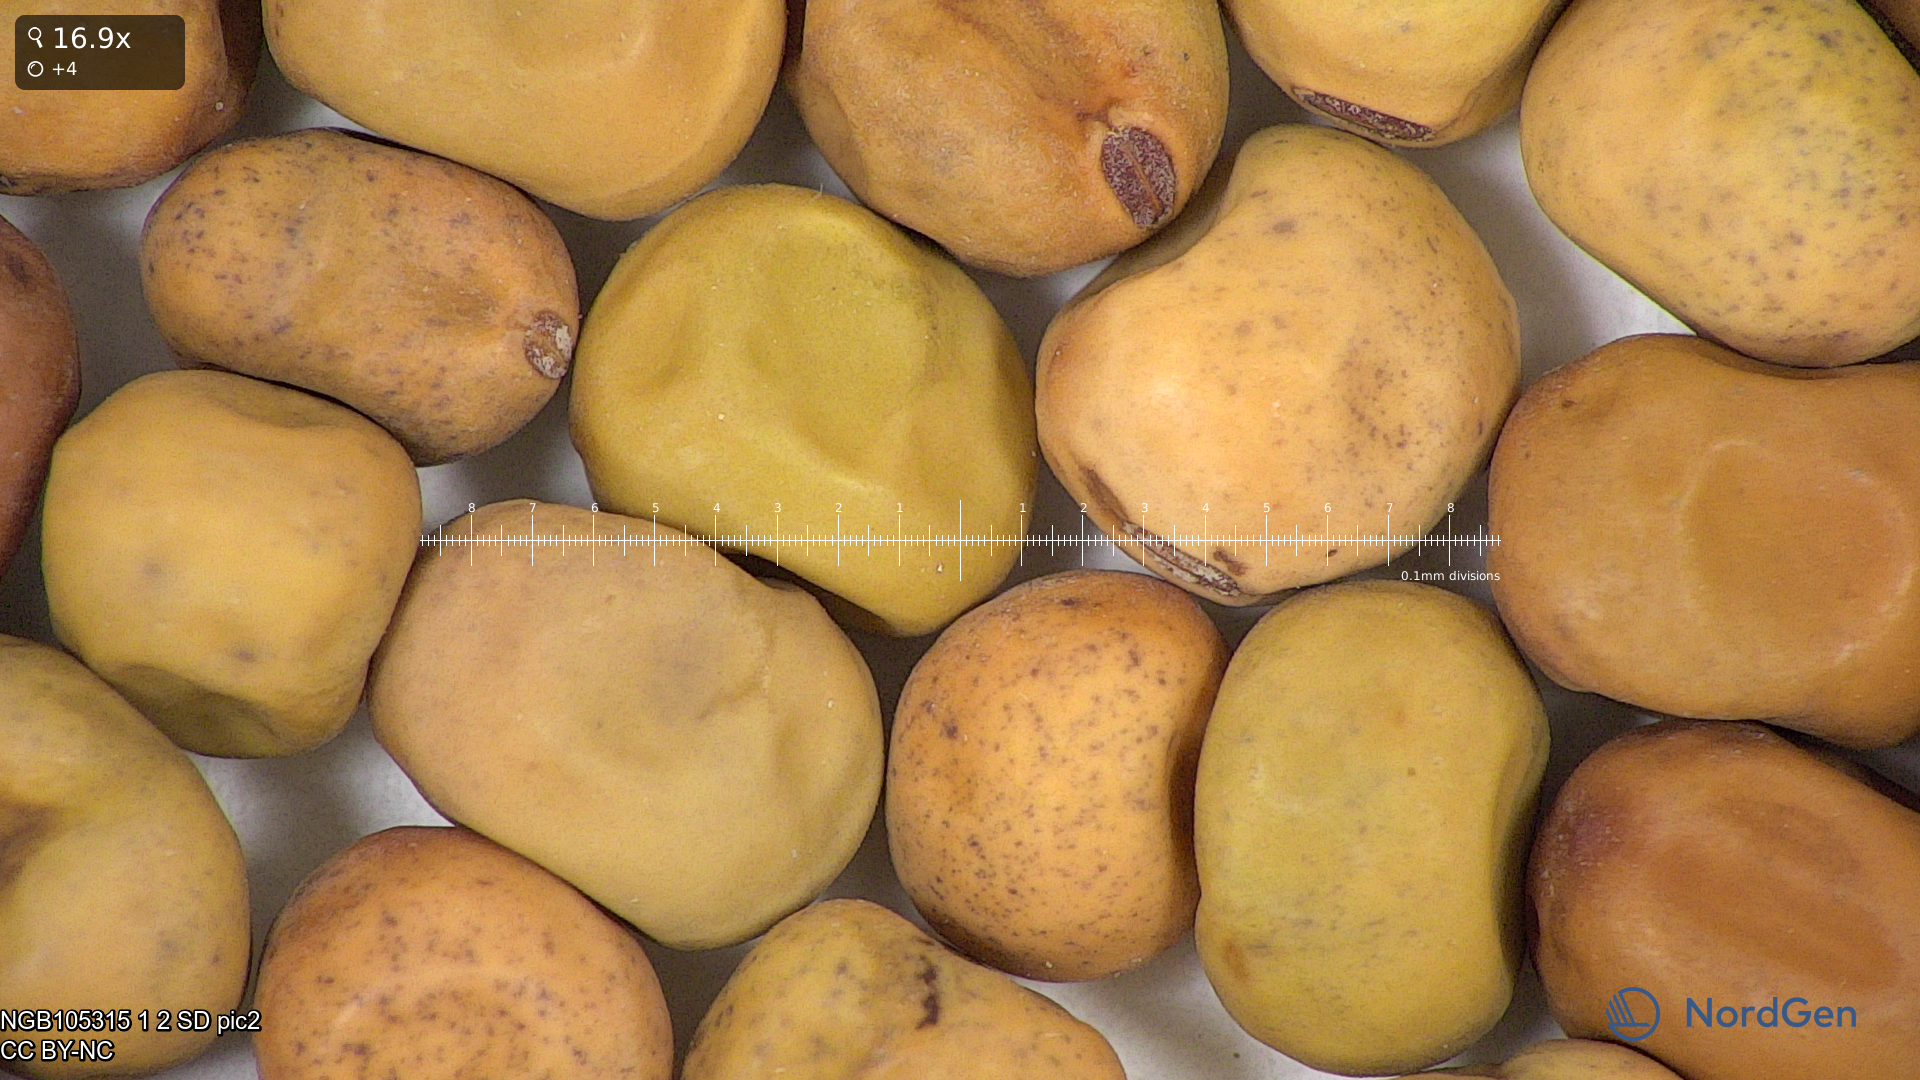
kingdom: Plantae
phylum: Tracheophyta
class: Magnoliopsida
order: Fabales
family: Fabaceae
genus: Lathyrus
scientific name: Lathyrus oleraceus
